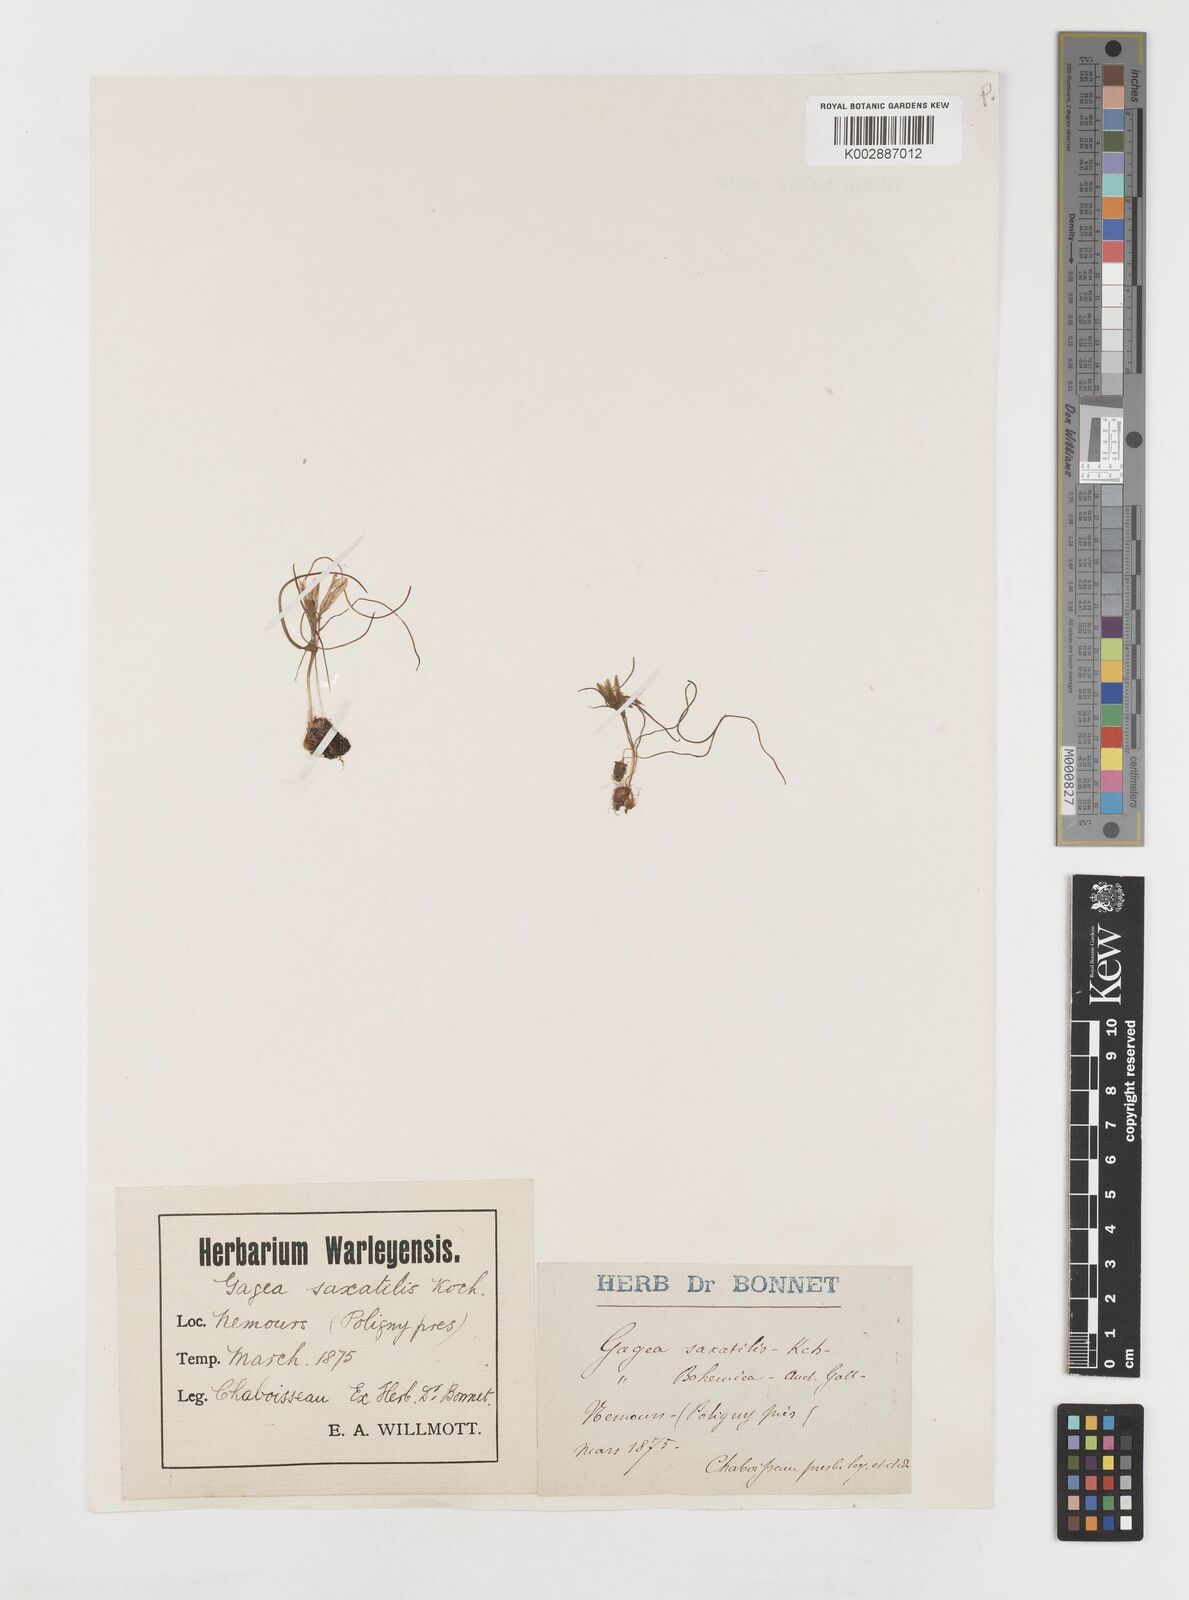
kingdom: Plantae
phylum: Tracheophyta
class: Liliopsida
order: Liliales
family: Liliaceae
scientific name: Liliaceae
